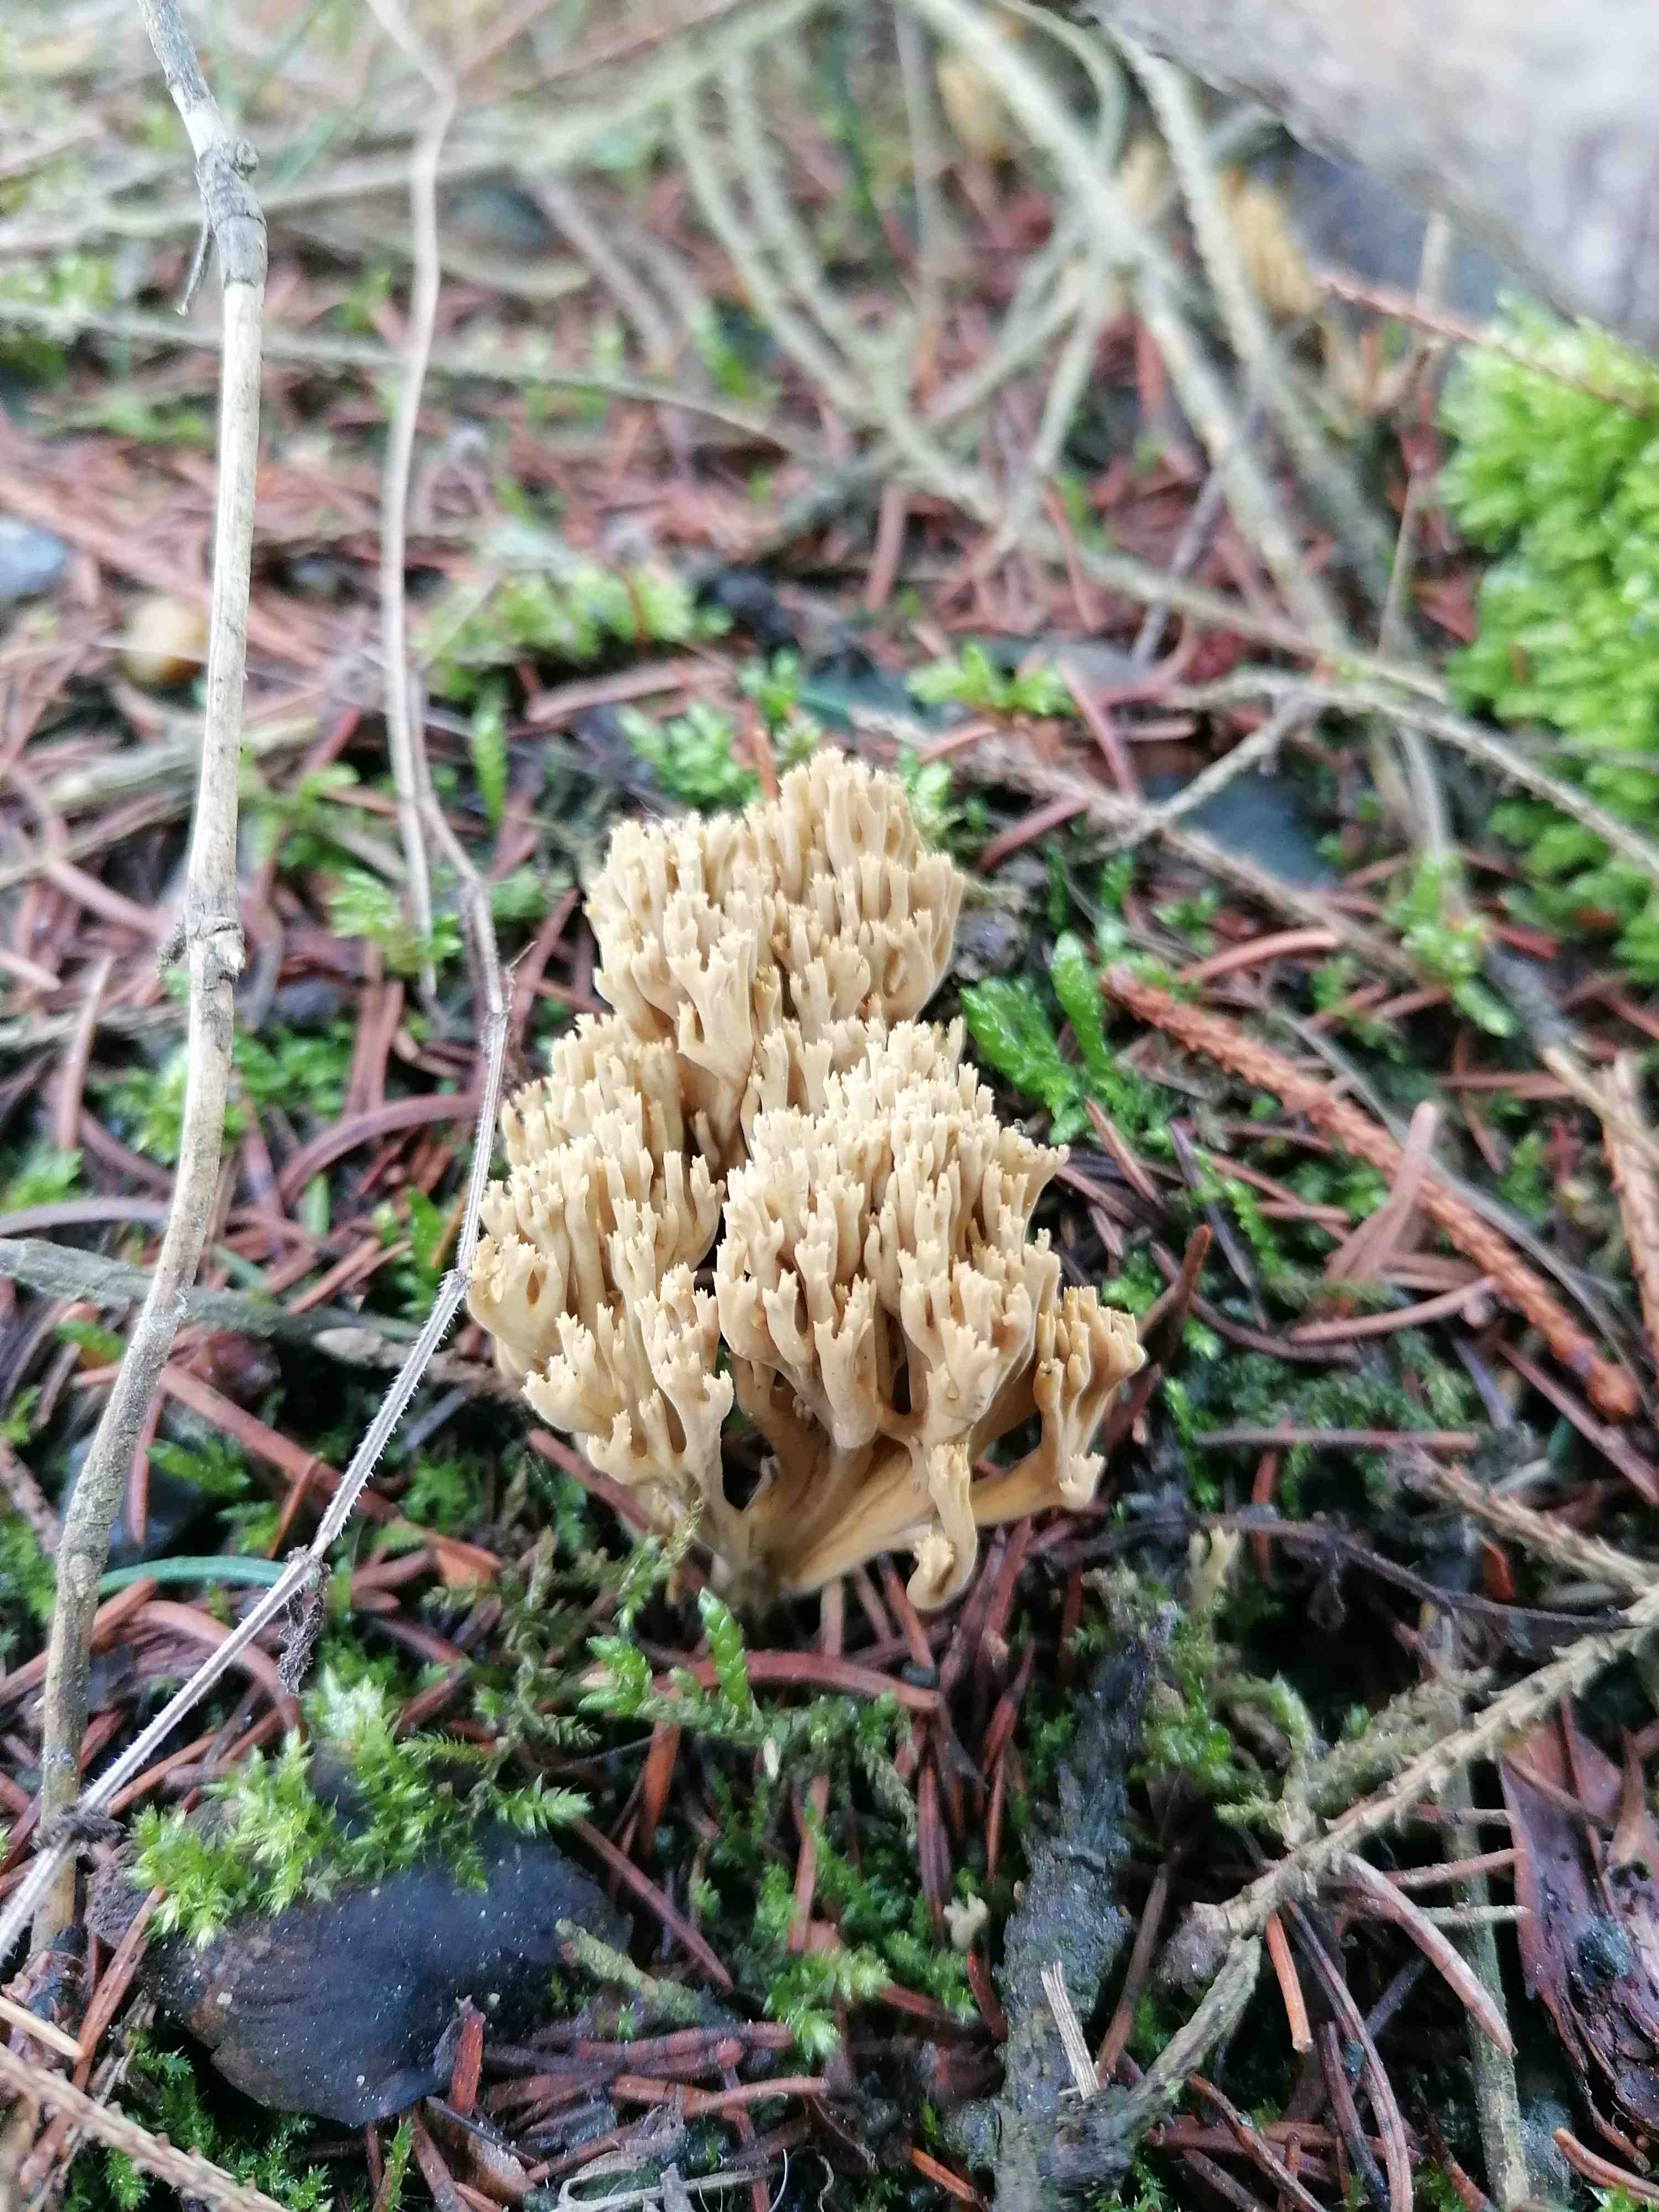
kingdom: Fungi
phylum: Basidiomycota
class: Agaricomycetes
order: Gomphales
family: Gomphaceae
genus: Phaeoclavulina
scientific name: Phaeoclavulina eumorpha
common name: gran-koralsvamp
